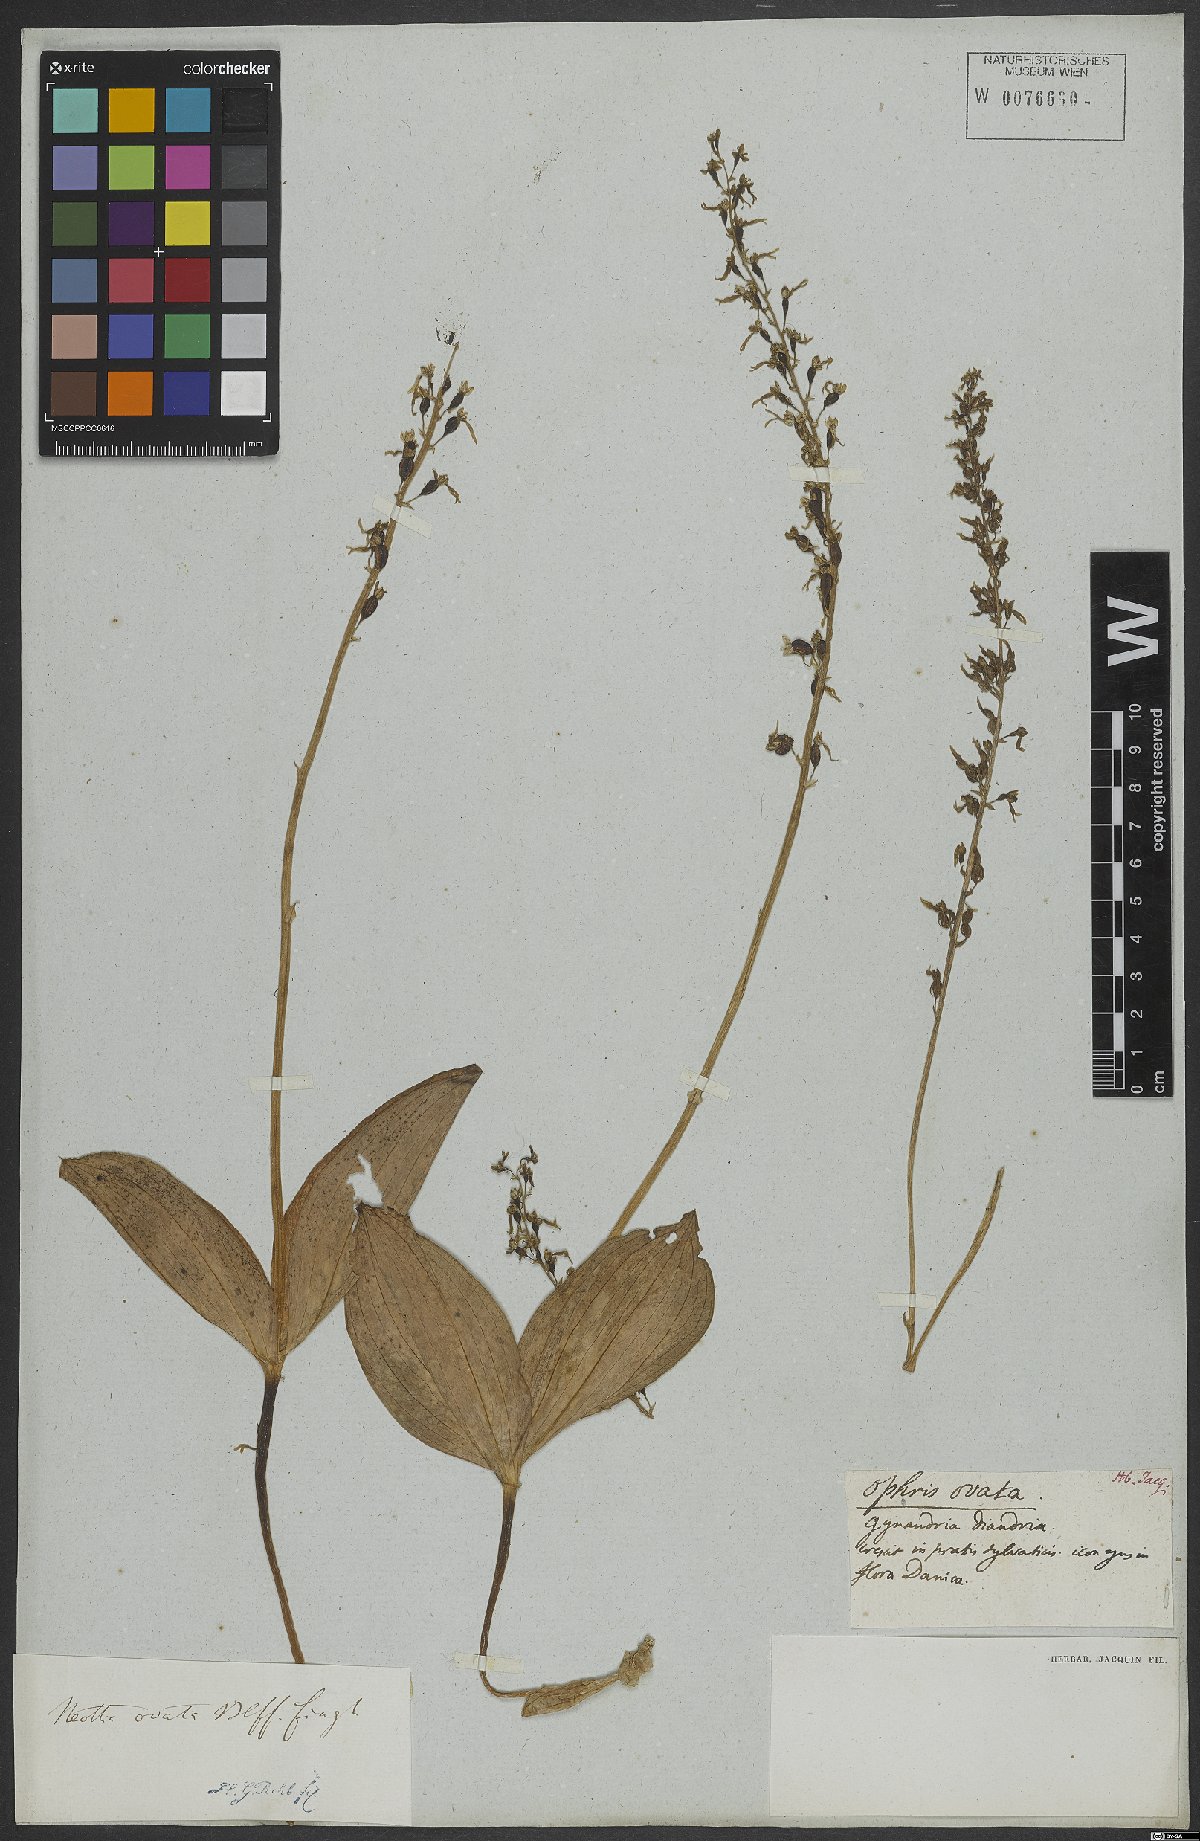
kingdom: Plantae
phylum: Tracheophyta
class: Liliopsida
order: Asparagales
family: Orchidaceae
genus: Neottia
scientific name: Neottia ovata
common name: Common twayblade
